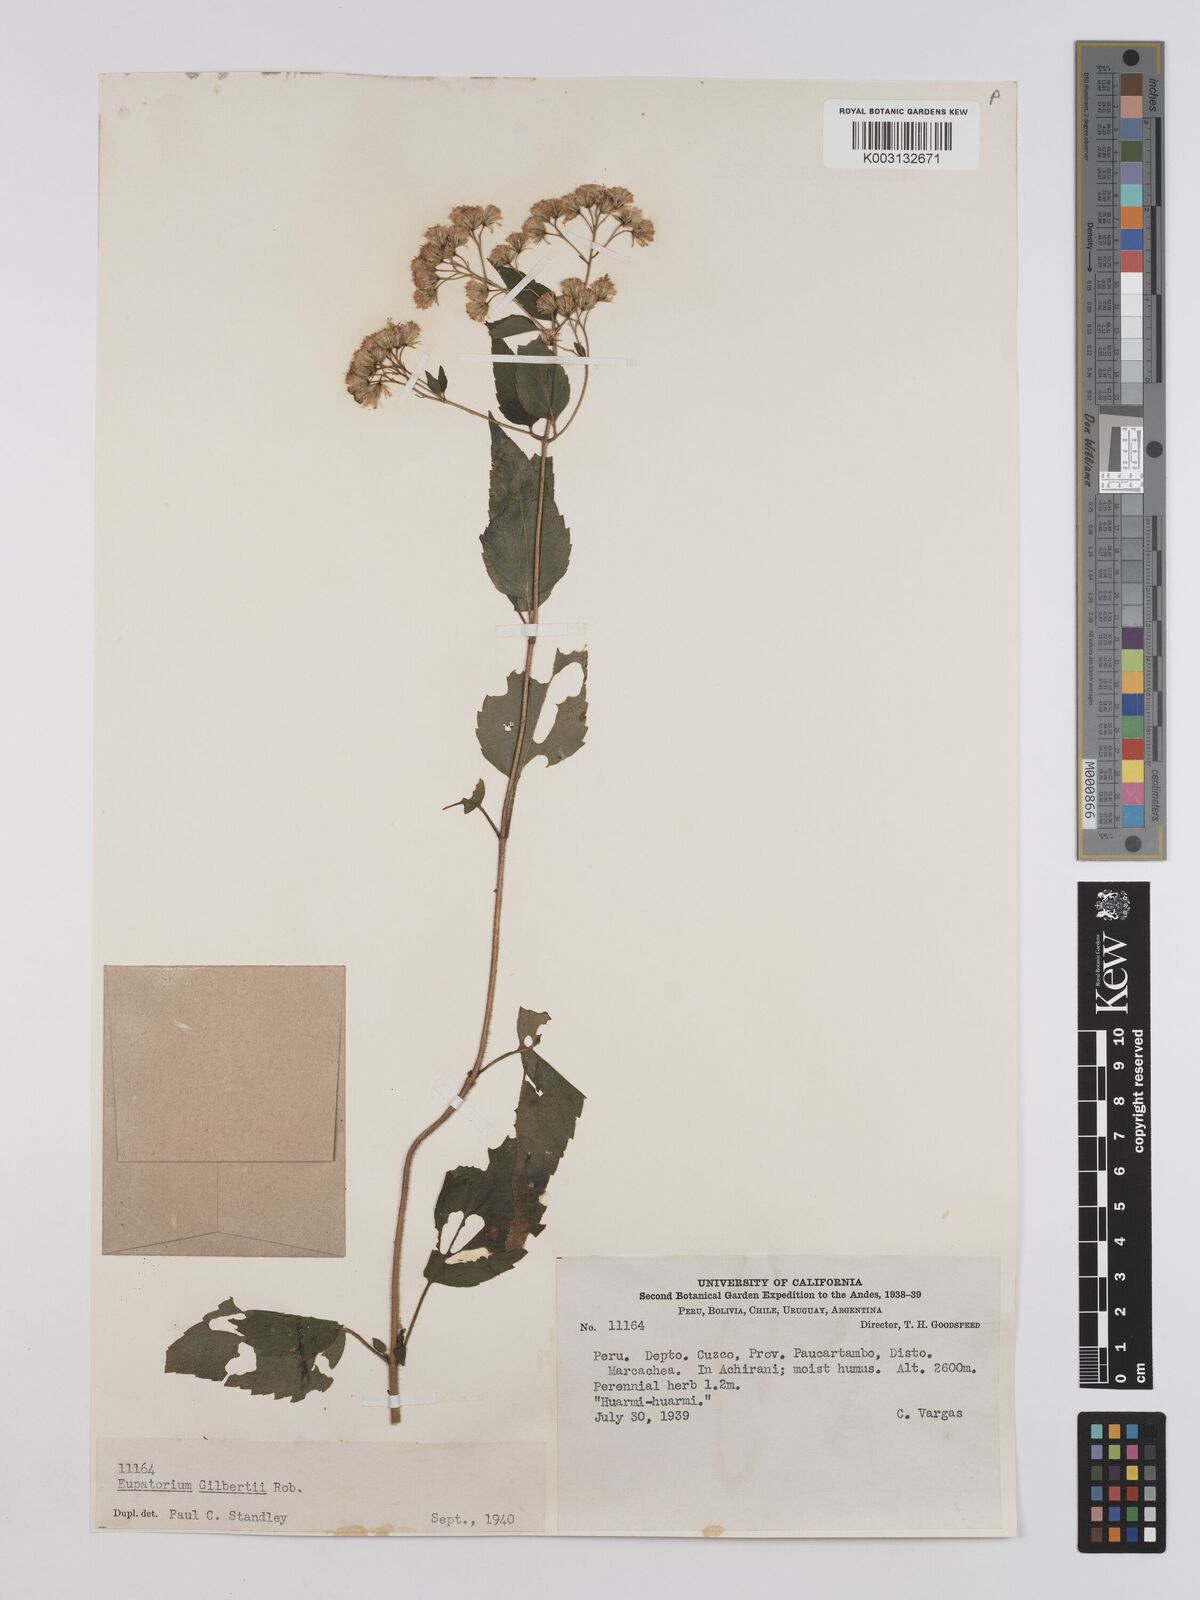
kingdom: Plantae
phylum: Tracheophyta
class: Magnoliopsida
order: Asterales
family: Asteraceae
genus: Ageratina
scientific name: Ageratina gilbertii
